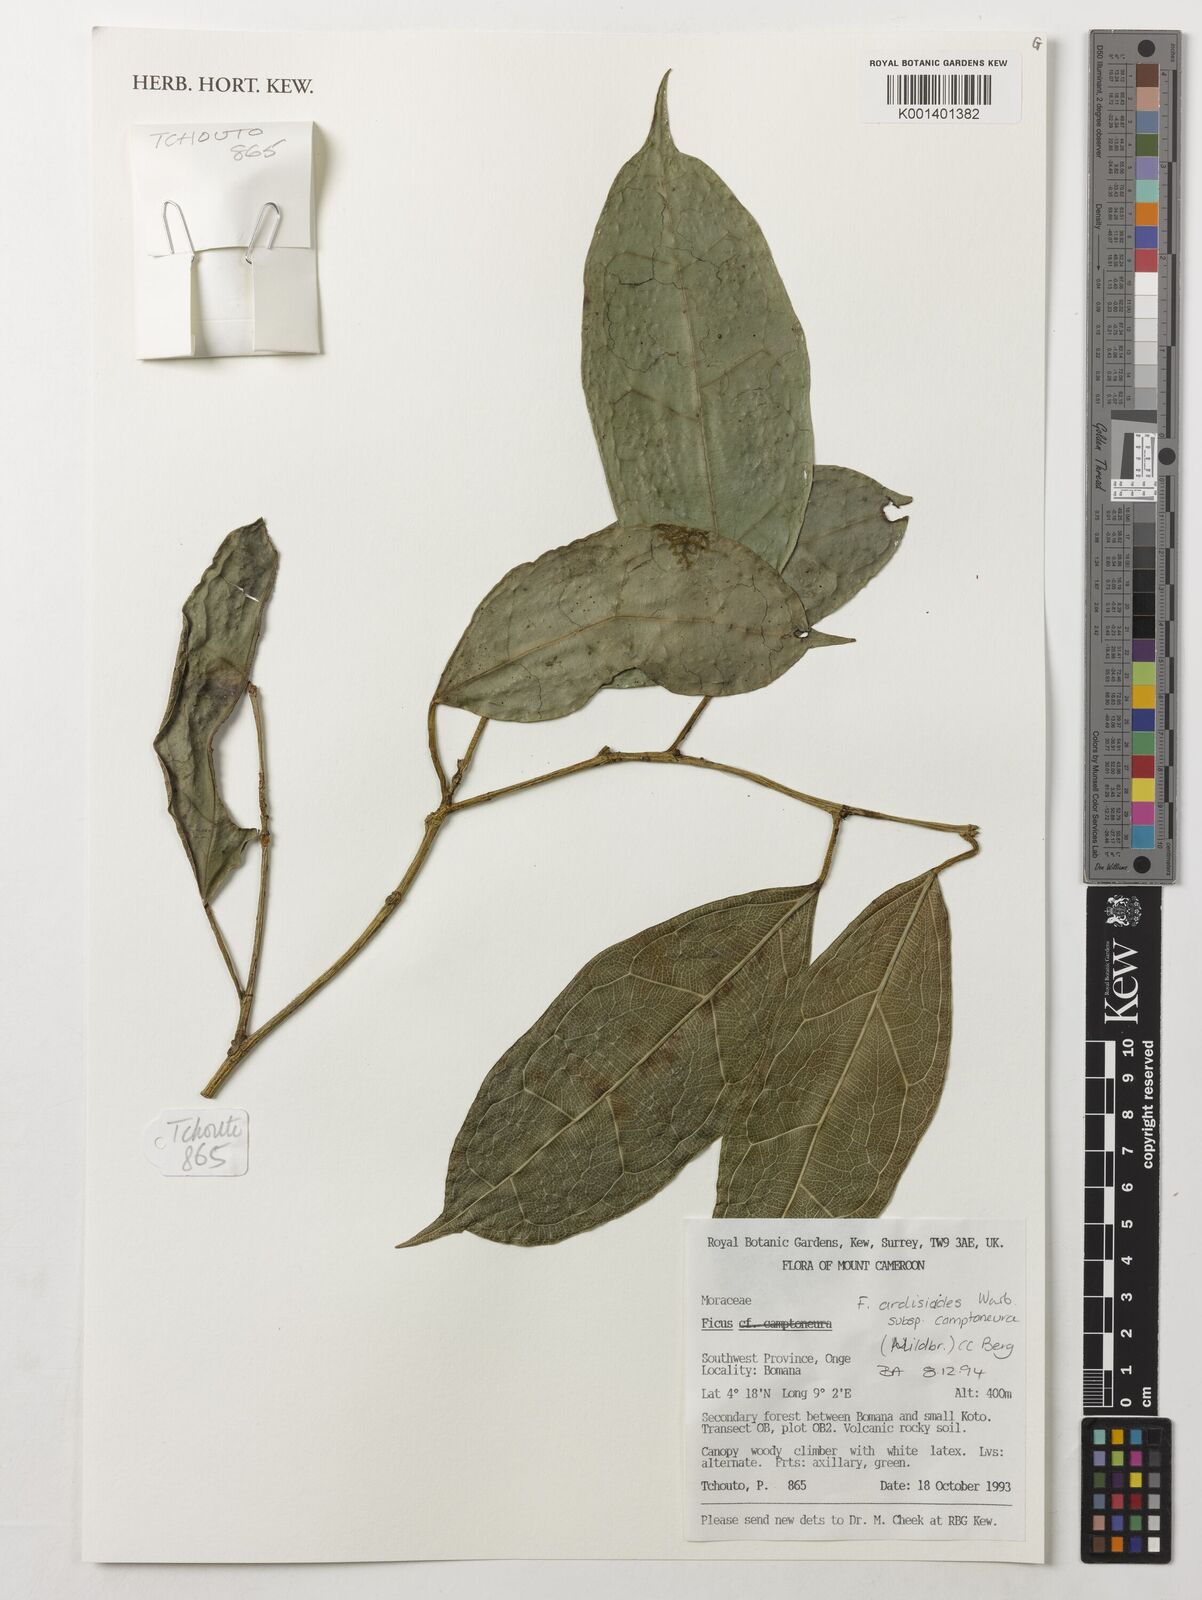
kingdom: Plantae
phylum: Tracheophyta
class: Magnoliopsida
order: Rosales
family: Moraceae
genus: Ficus
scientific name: Ficus ardisioides
